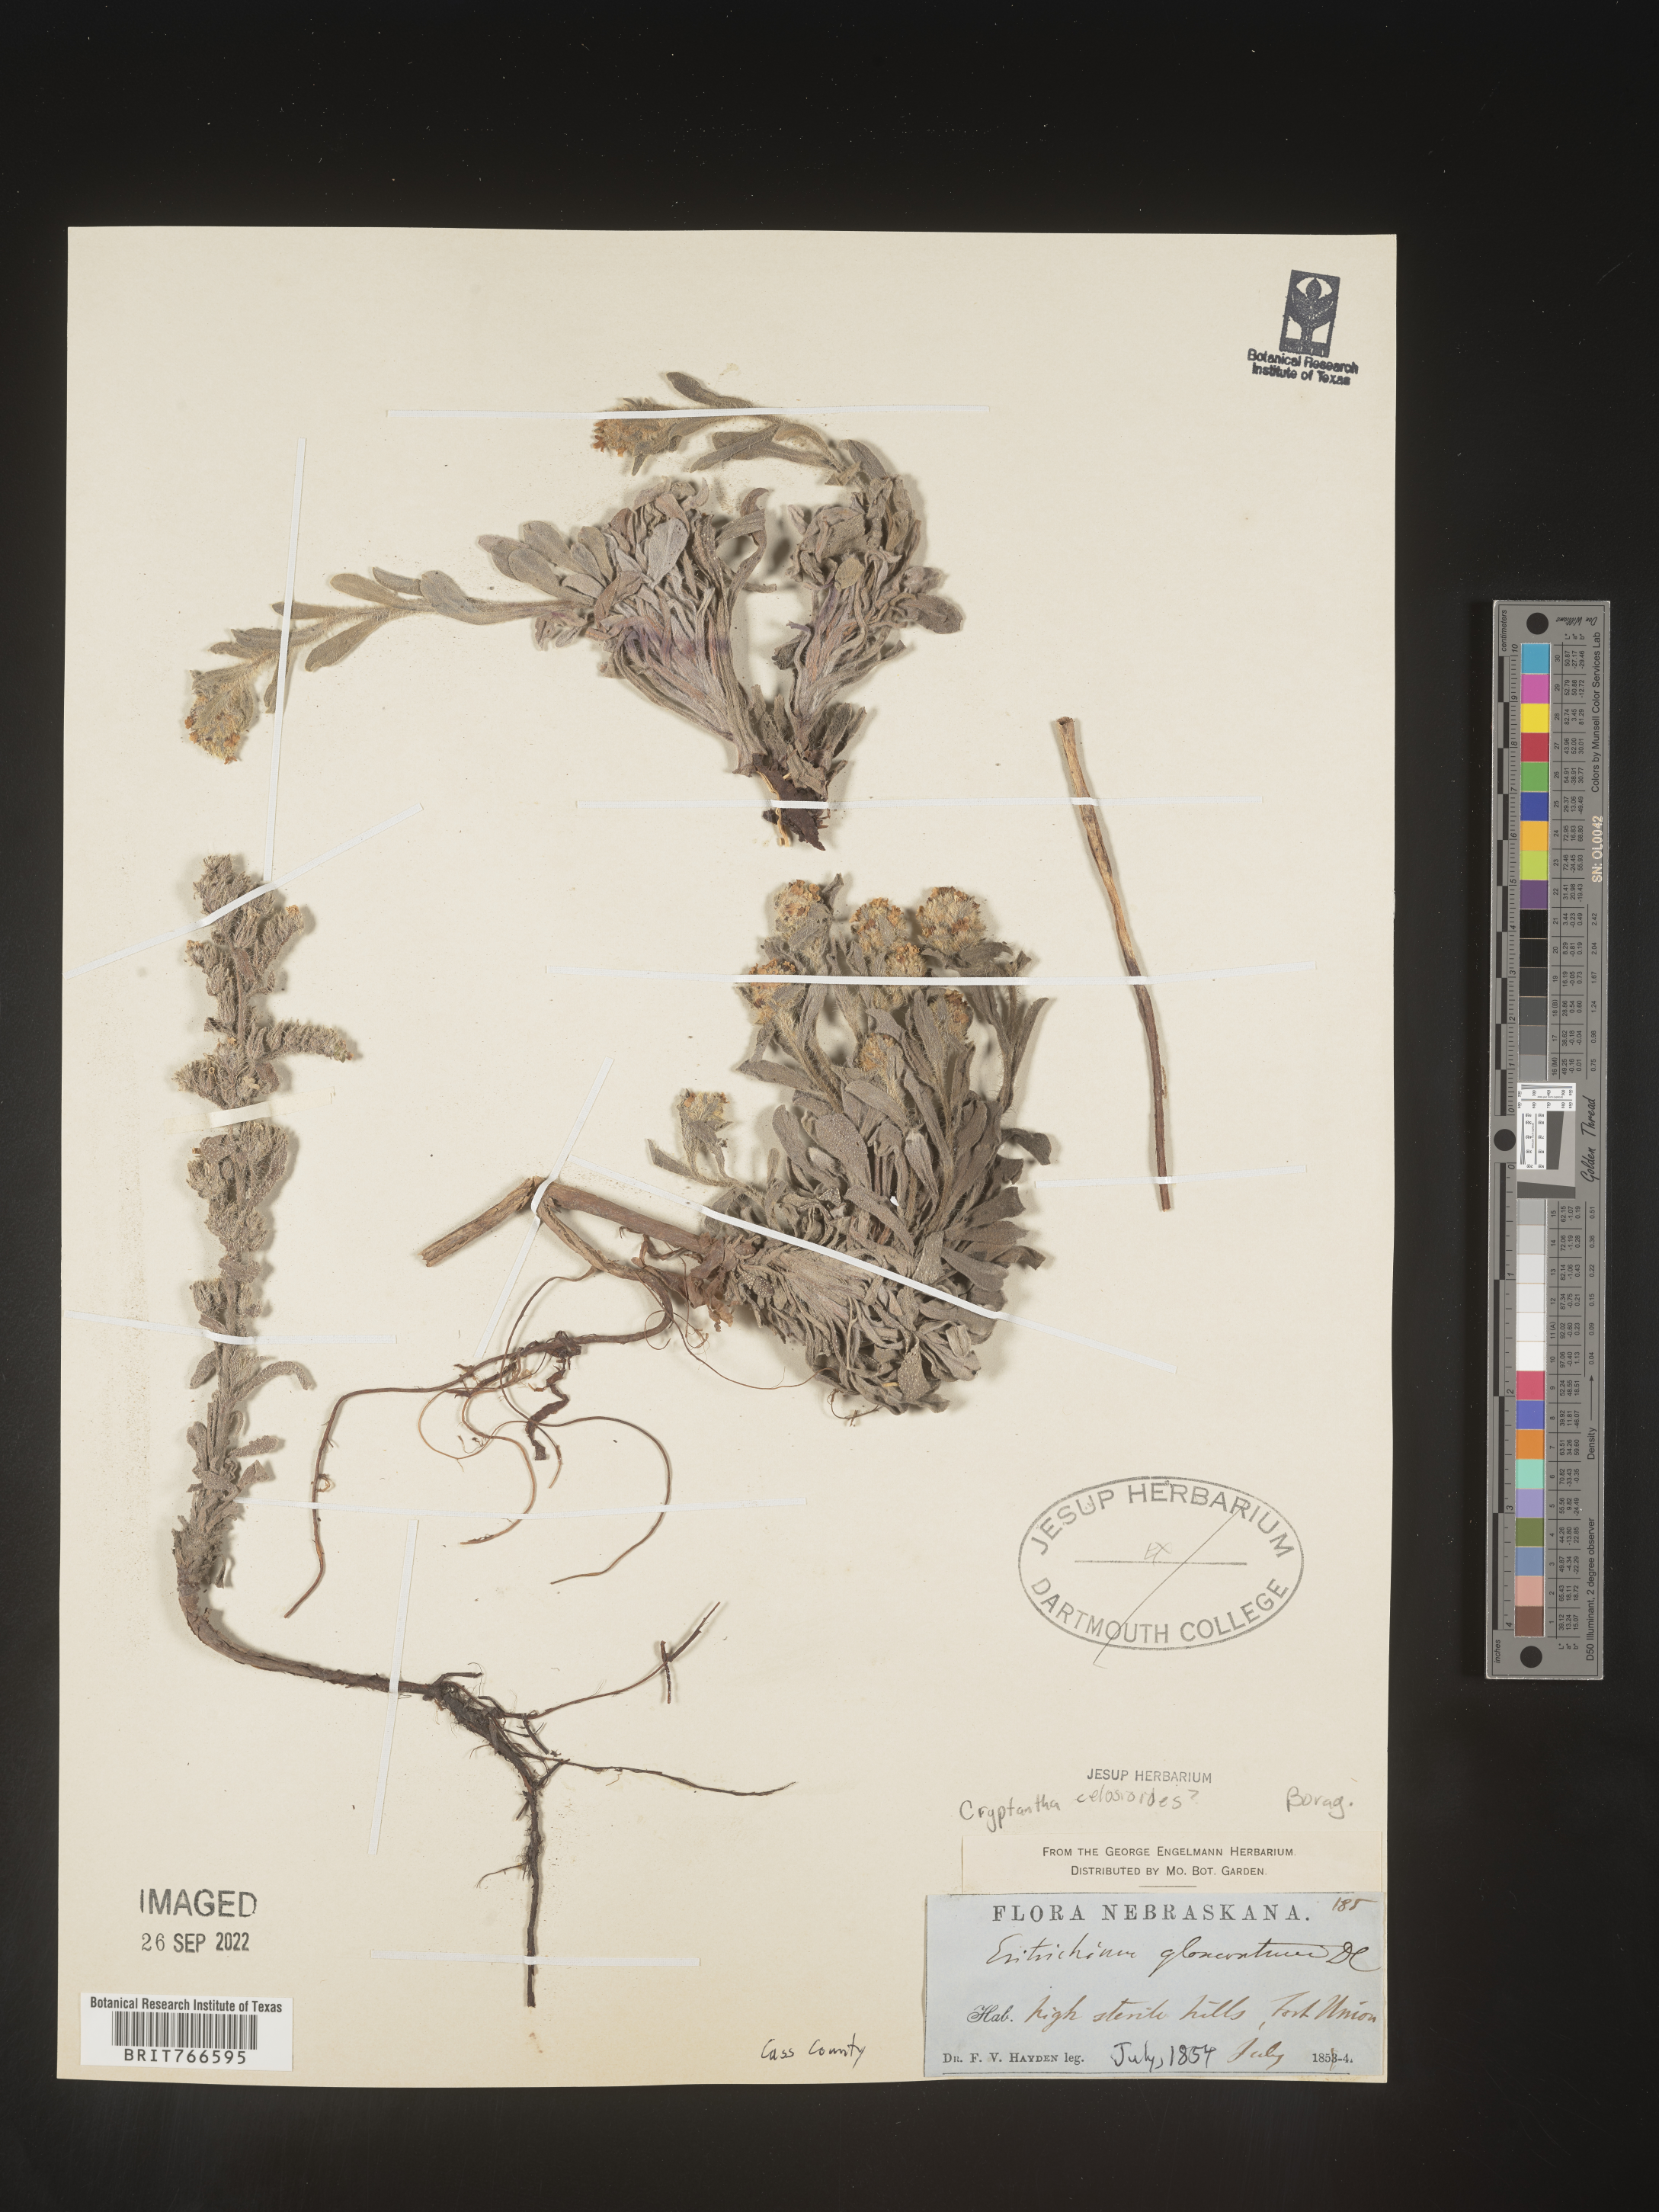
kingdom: Plantae
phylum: Tracheophyta
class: Magnoliopsida
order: Boraginales
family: Boraginaceae
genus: Cryptantha
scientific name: Cryptantha
